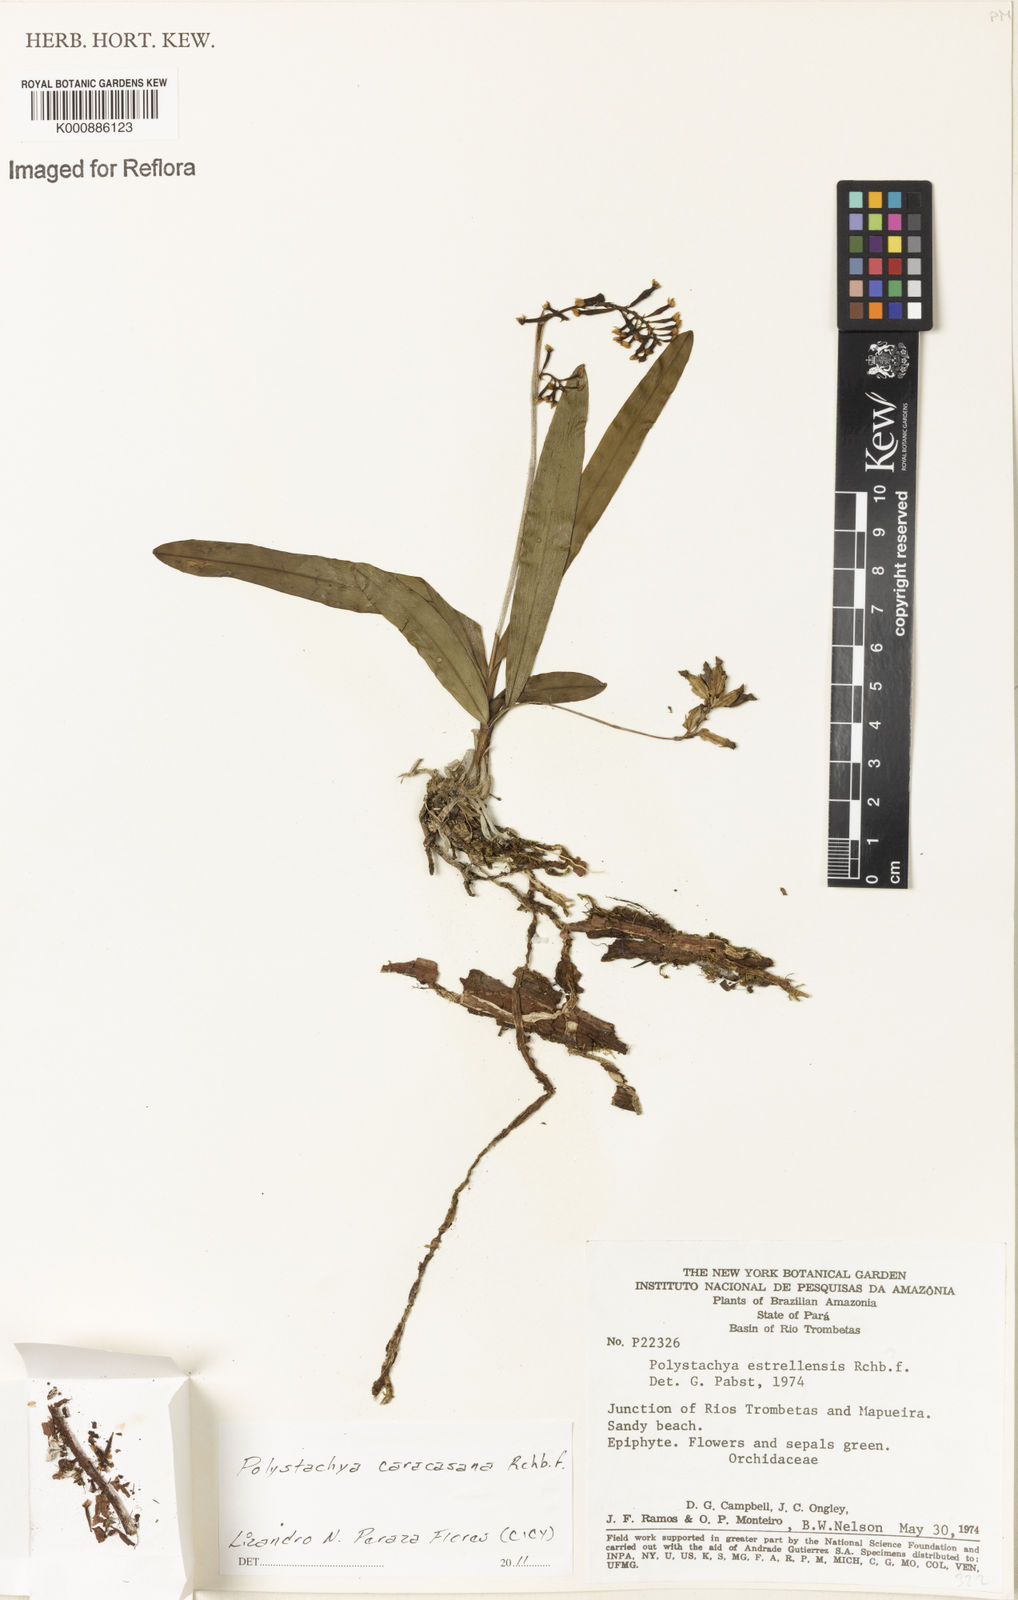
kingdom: Plantae
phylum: Tracheophyta
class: Liliopsida
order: Asparagales
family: Orchidaceae
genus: Polystachya
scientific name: Polystachya foliosa
